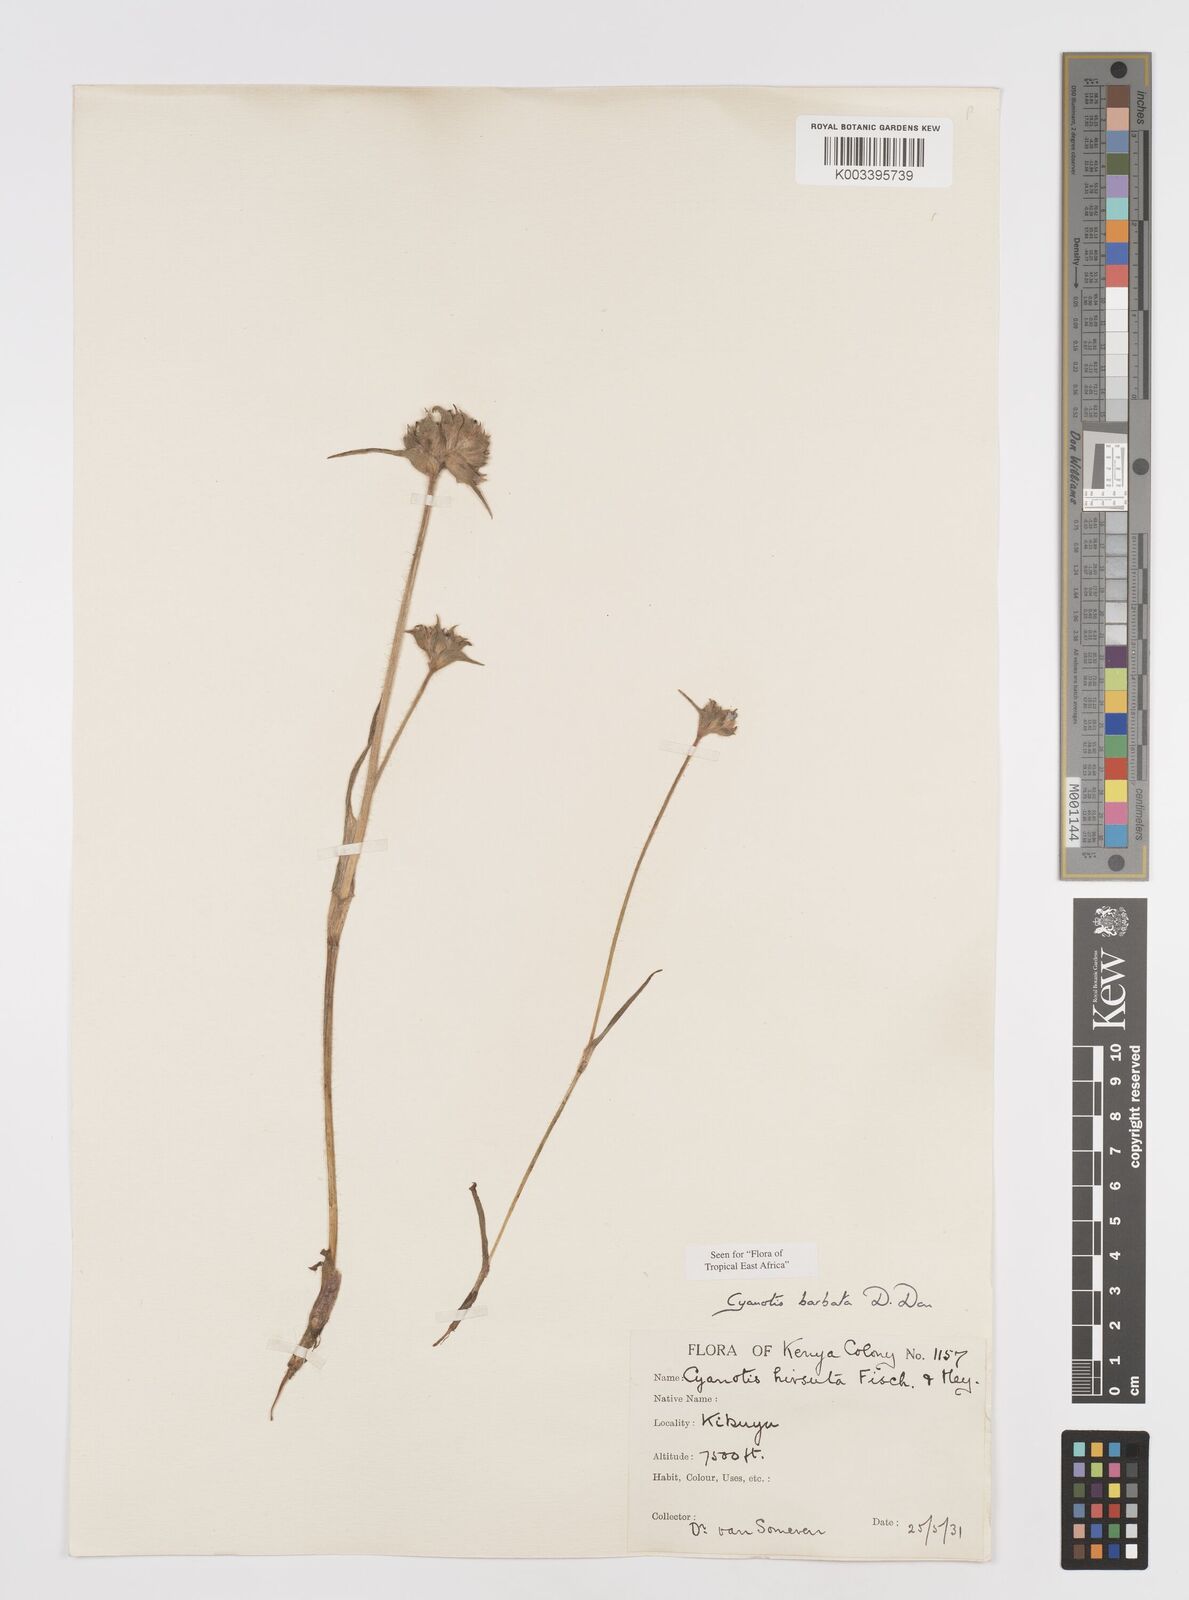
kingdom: Plantae
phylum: Tracheophyta
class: Liliopsida
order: Commelinales
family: Commelinaceae
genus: Cyanotis
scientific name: Cyanotis vaga
